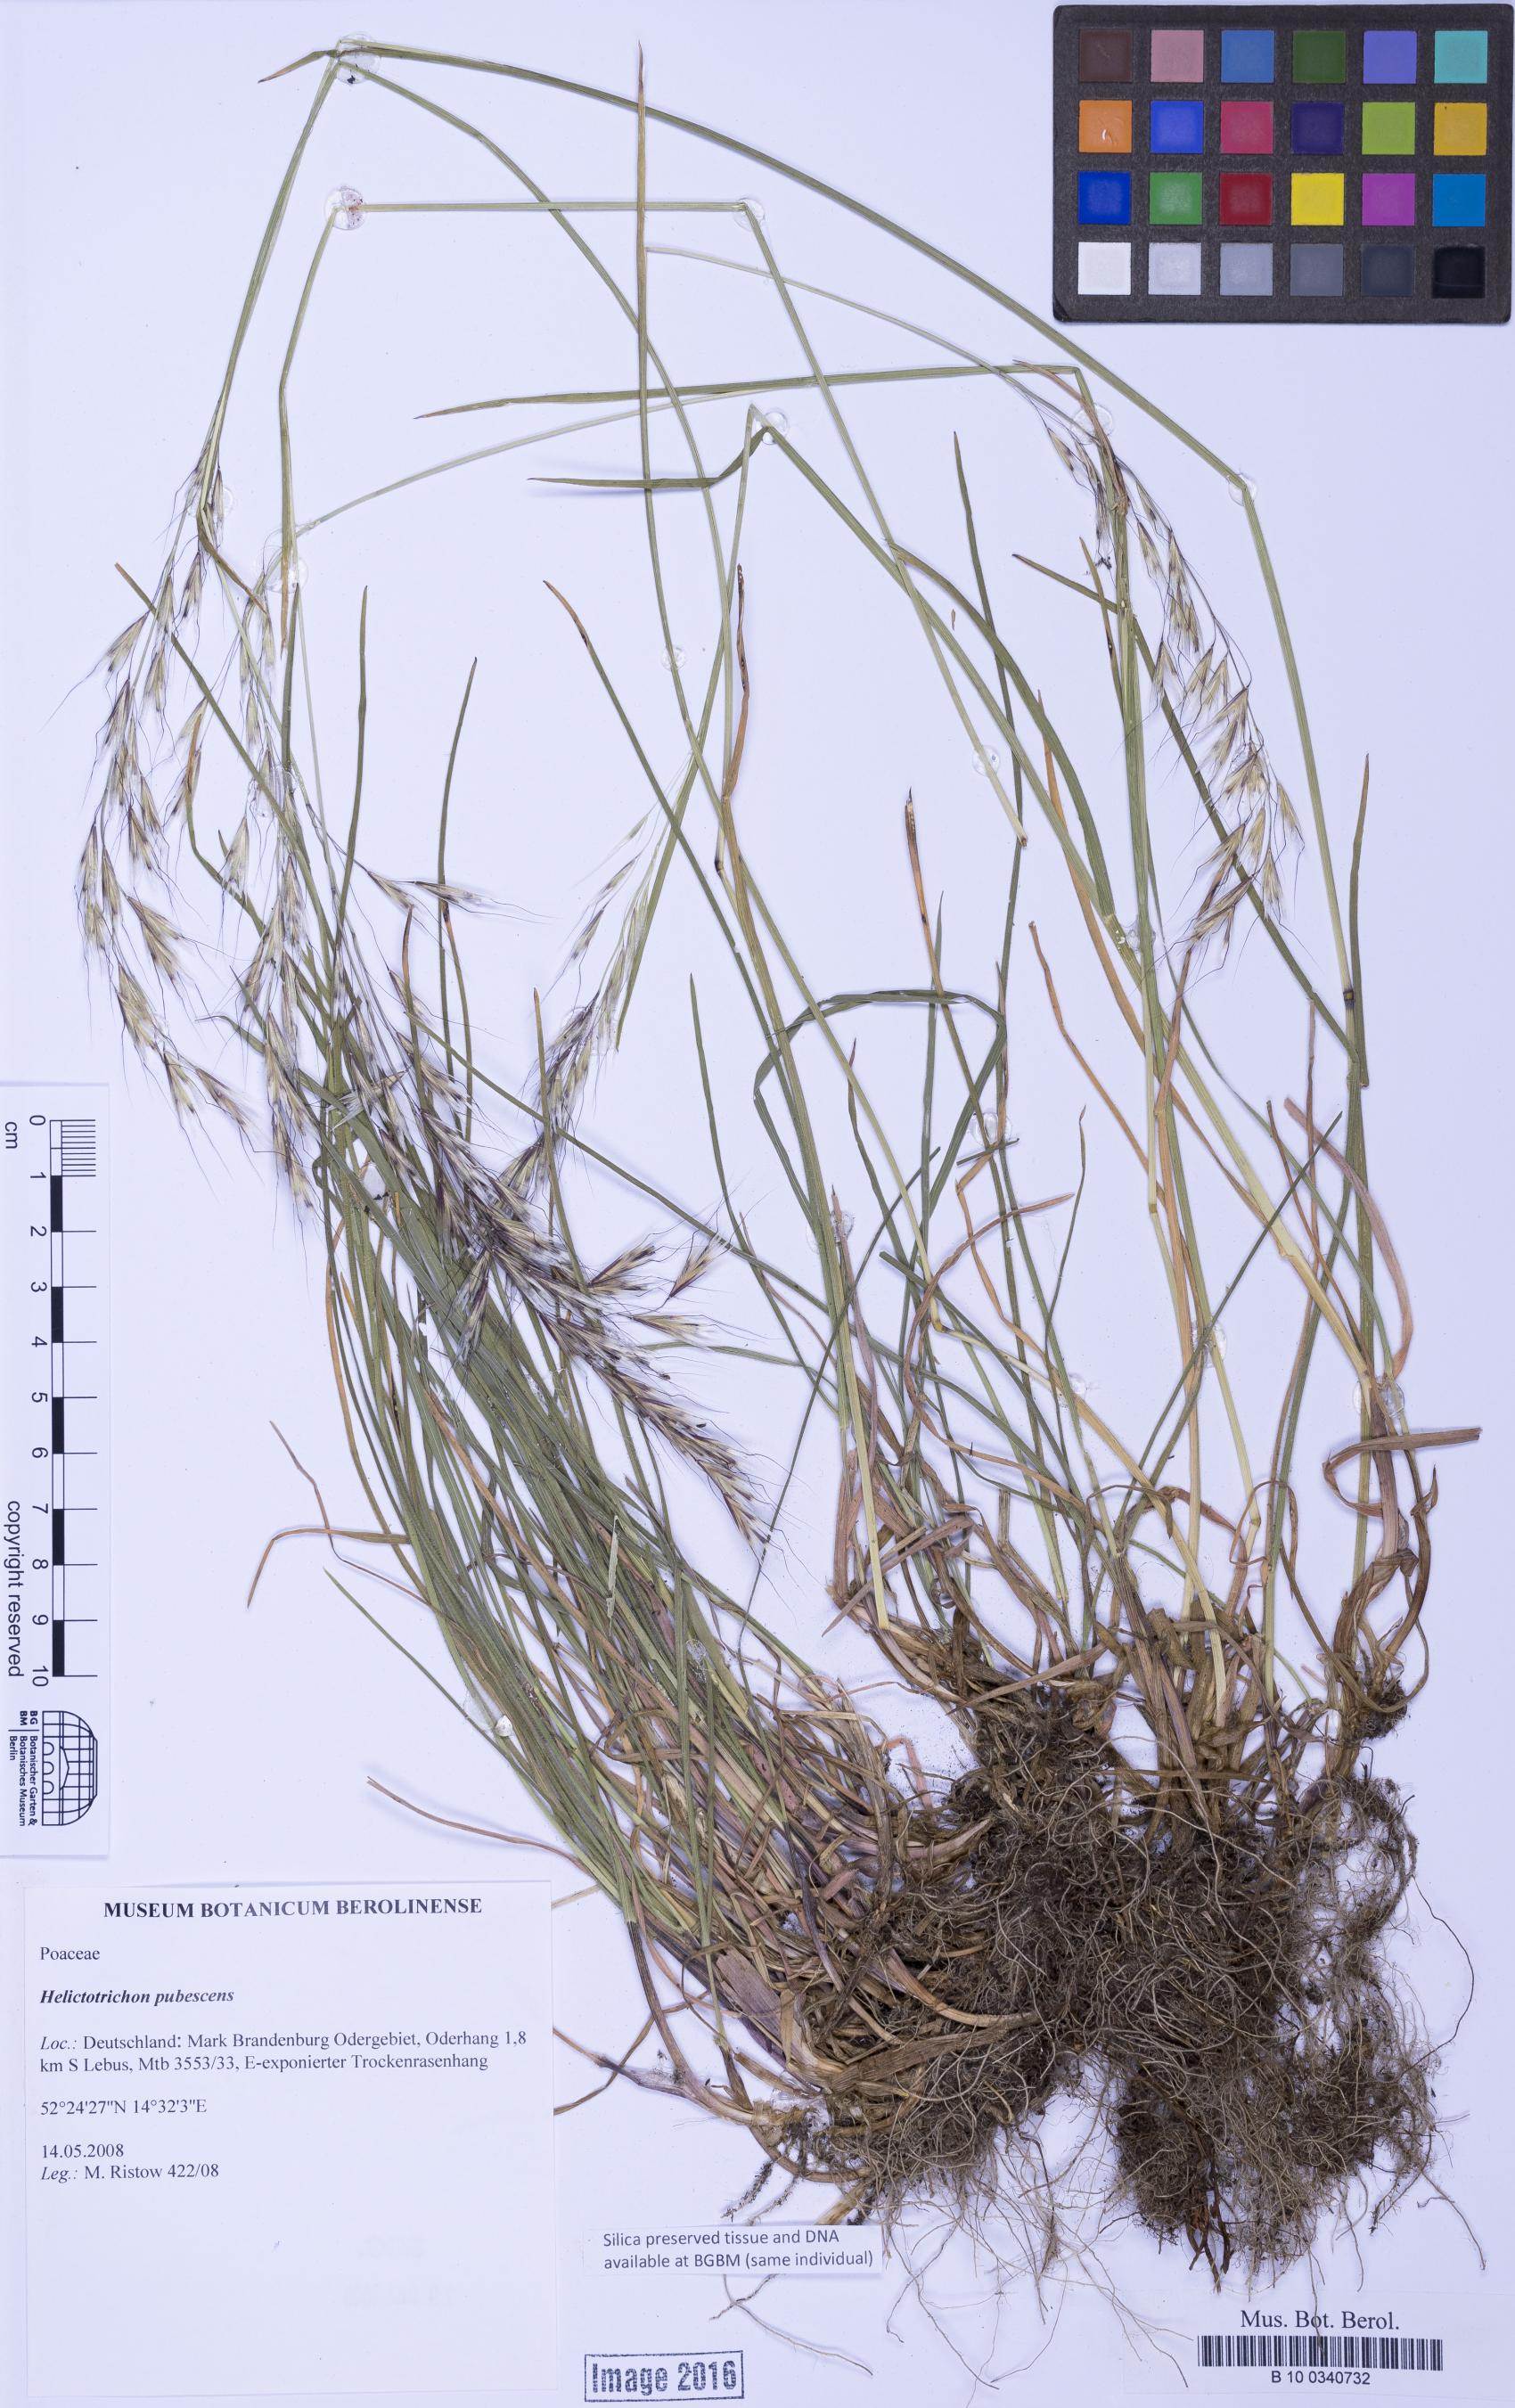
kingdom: Plantae
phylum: Tracheophyta
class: Liliopsida
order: Poales
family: Poaceae
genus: Avenula
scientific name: Avenula pubescens
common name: Downy alpine oatgrass
